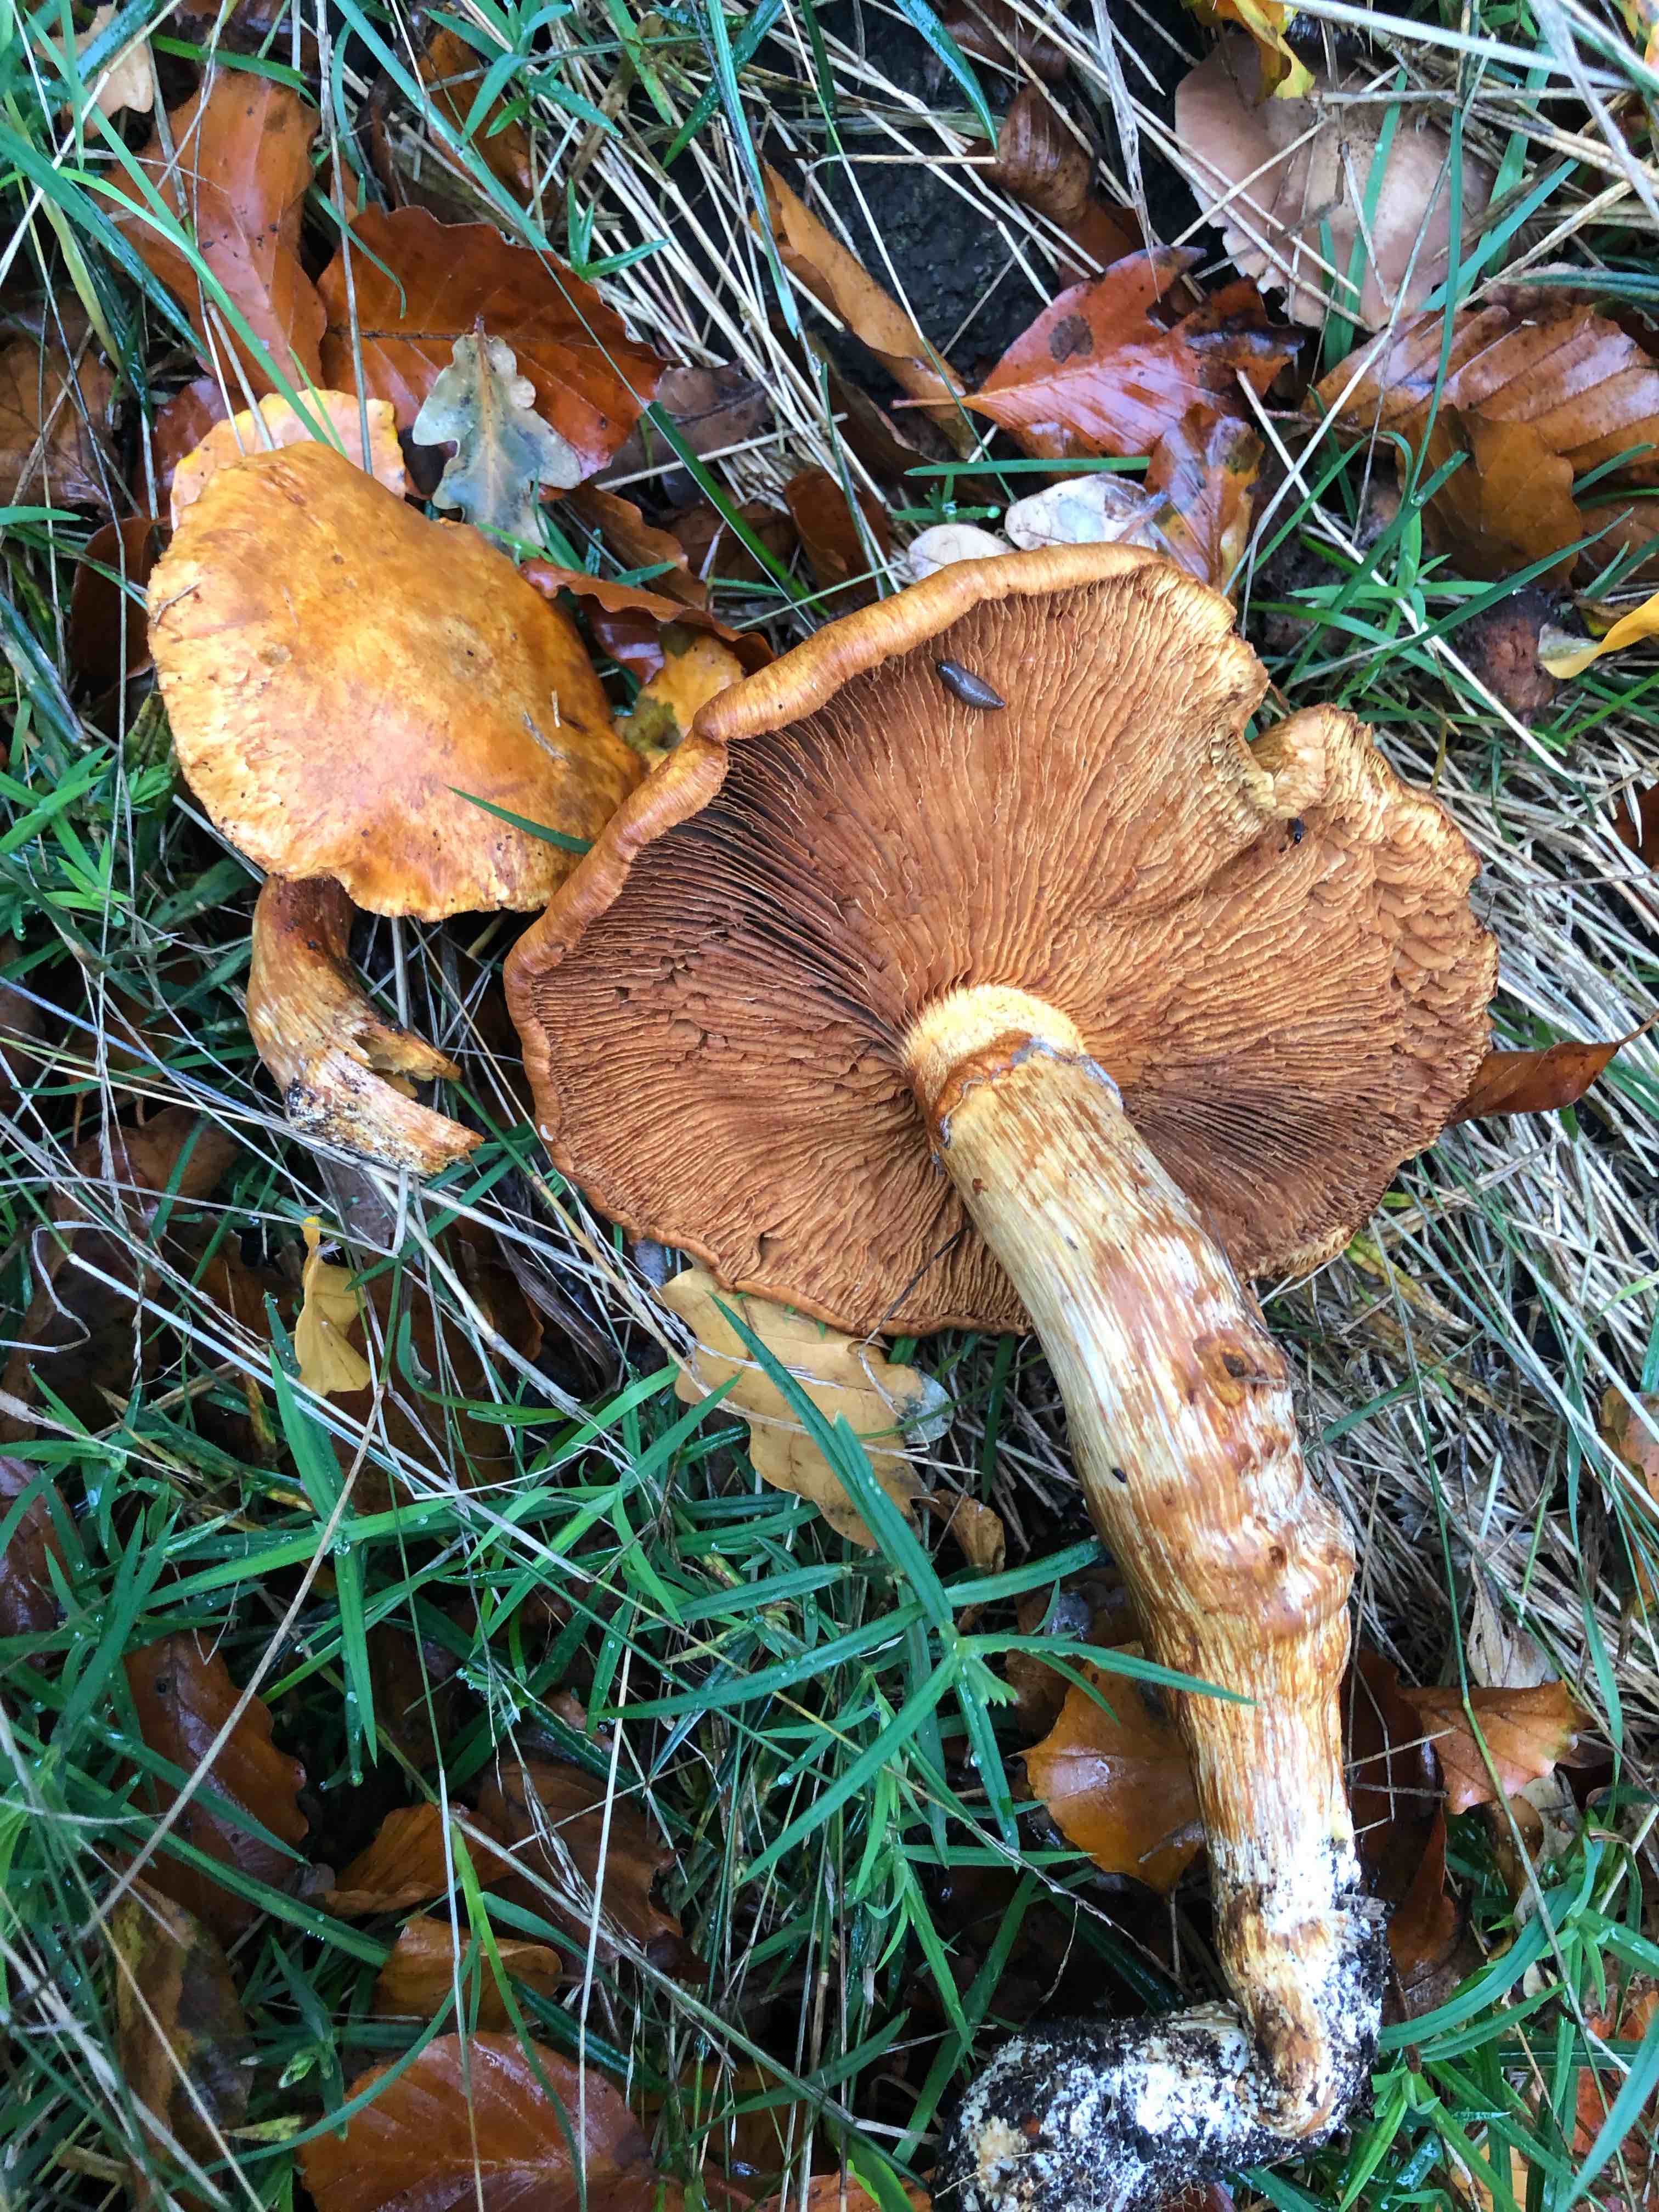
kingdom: Fungi
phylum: Basidiomycota
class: Agaricomycetes
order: Agaricales
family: Hymenogastraceae
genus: Gymnopilus
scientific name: Gymnopilus spectabilis
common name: fibret flammehat
